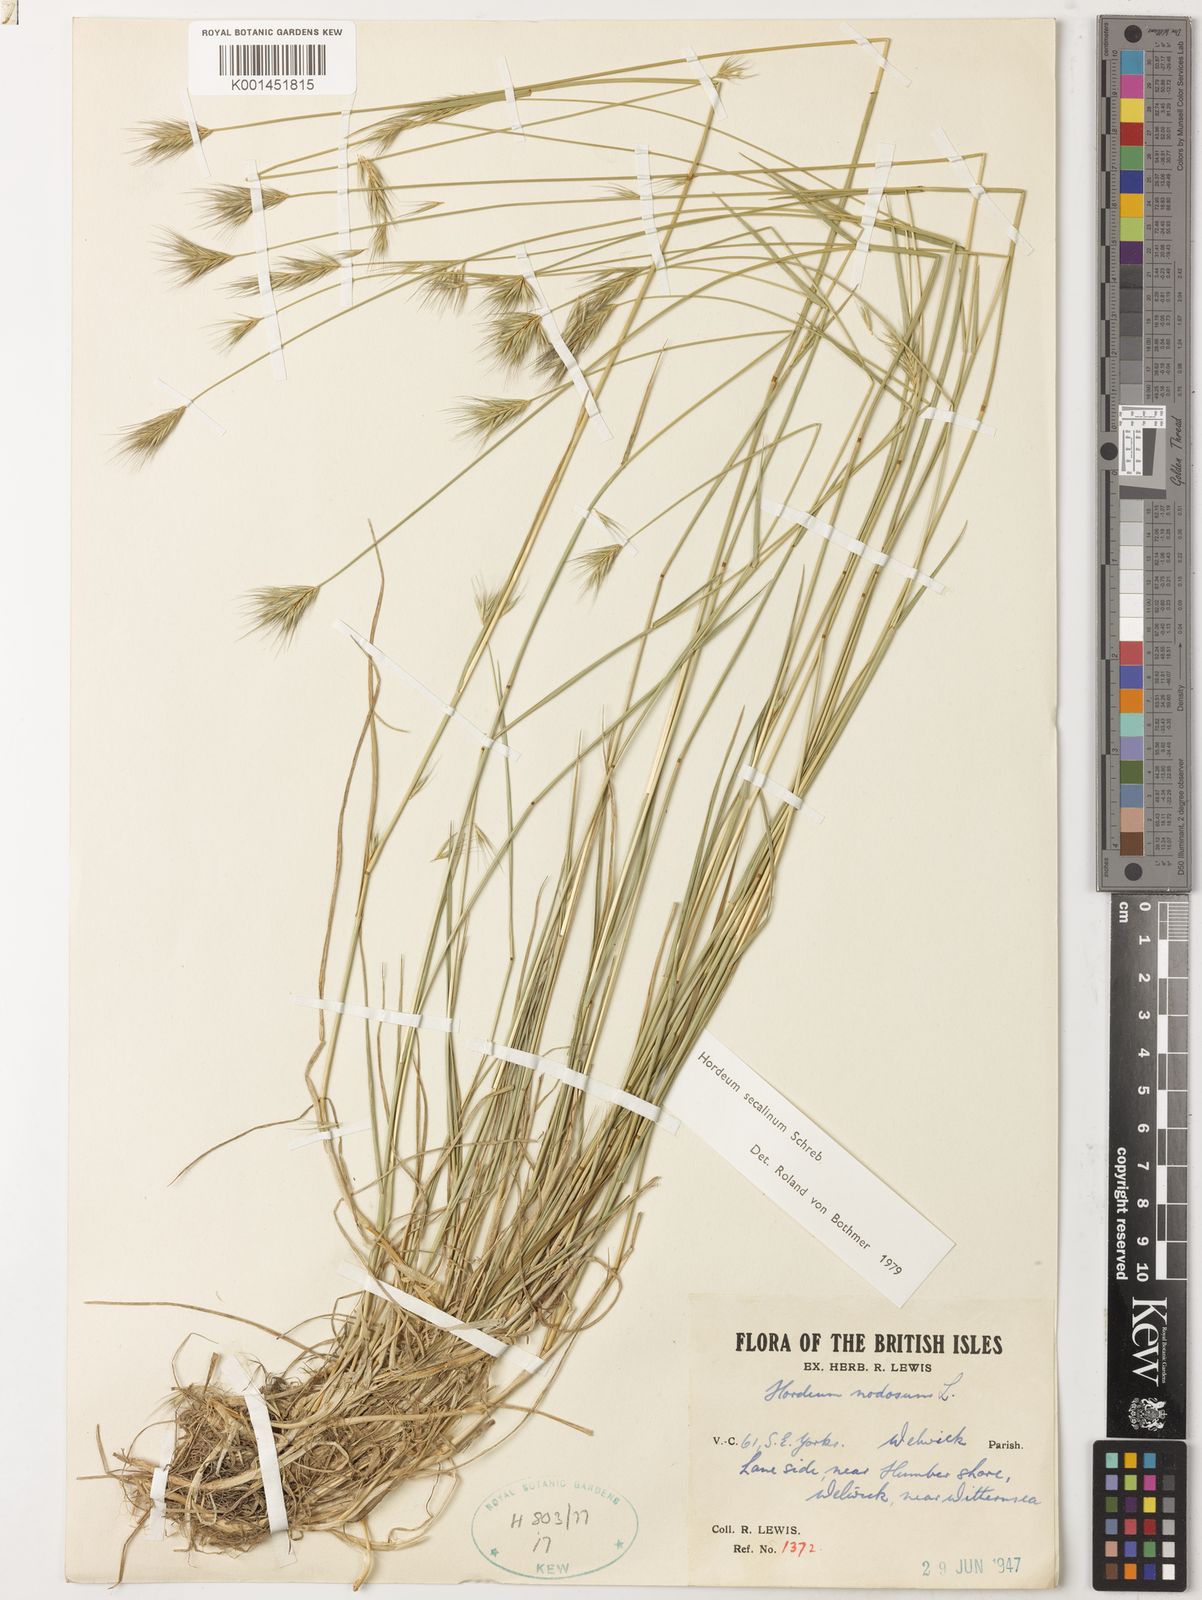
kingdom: Plantae
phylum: Tracheophyta
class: Liliopsida
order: Poales
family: Poaceae
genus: Hordeum
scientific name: Hordeum secalinum
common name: Meadow barley
